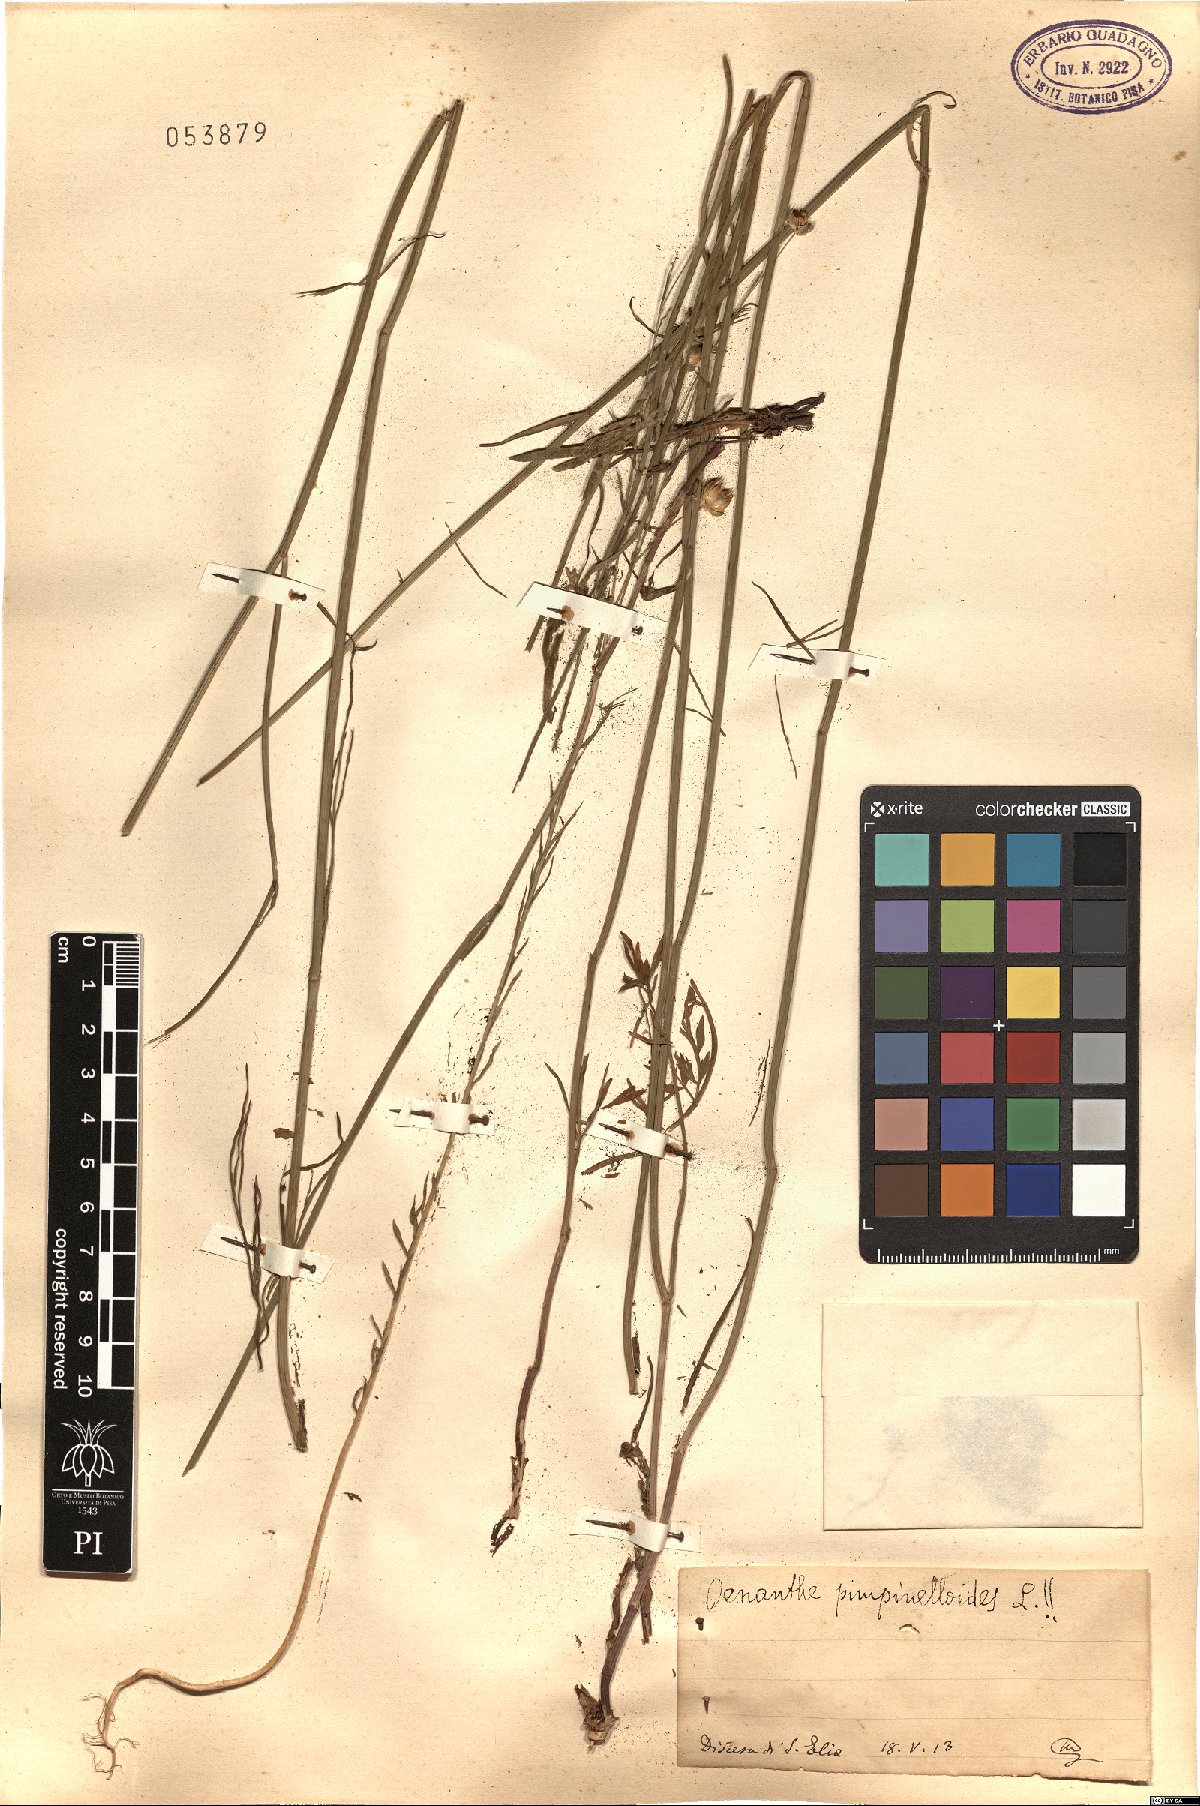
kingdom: Plantae
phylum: Tracheophyta
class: Magnoliopsida
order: Apiales
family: Apiaceae
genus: Oenanthe
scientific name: Oenanthe pimpinelloides
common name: Corky-fruited water-dropwort
